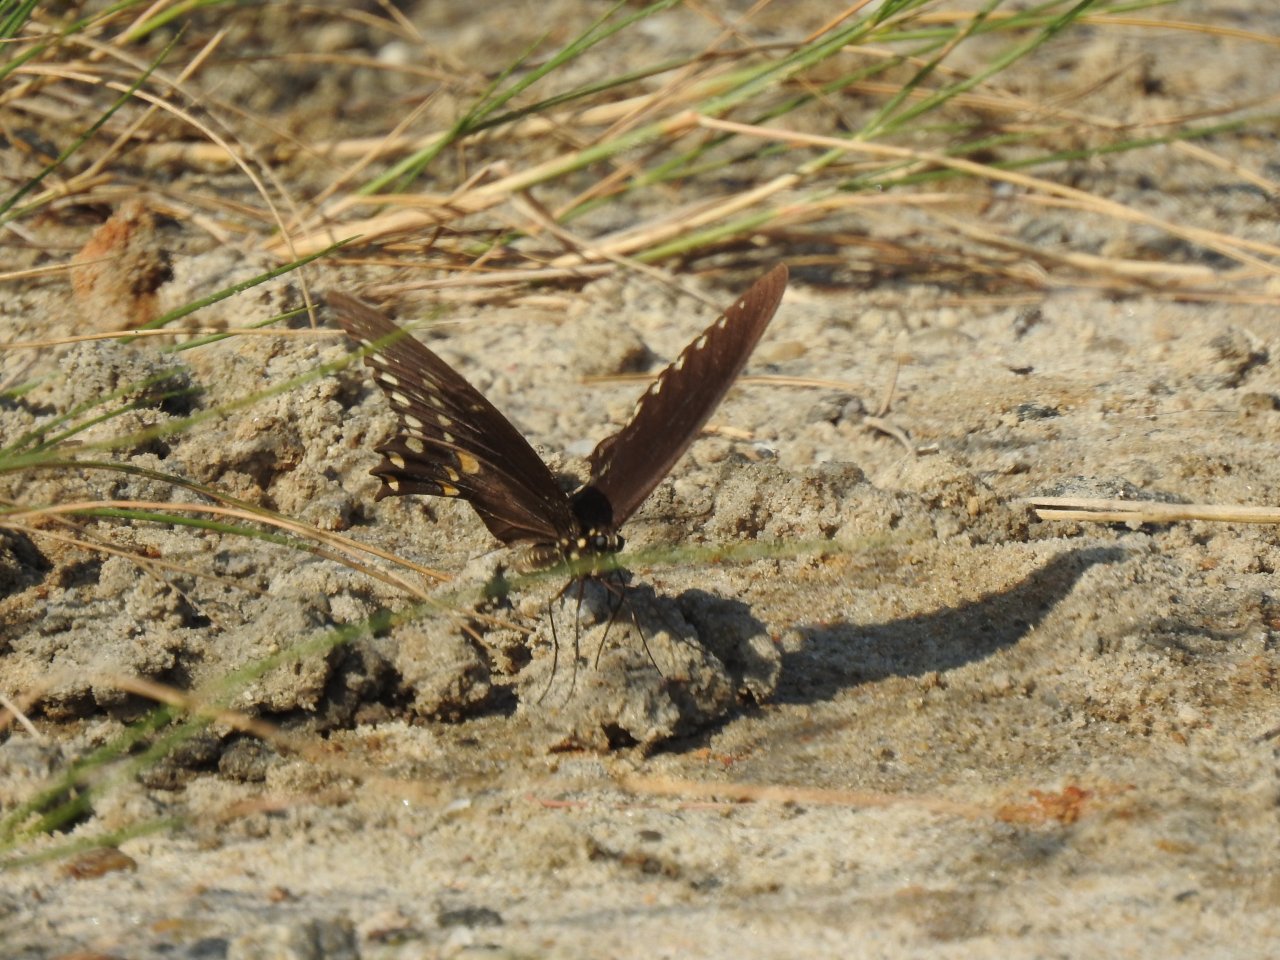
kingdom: Animalia
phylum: Arthropoda
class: Insecta
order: Lepidoptera
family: Papilionidae
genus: Pterourus
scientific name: Pterourus troilus
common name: Spicebush Swallowtail
